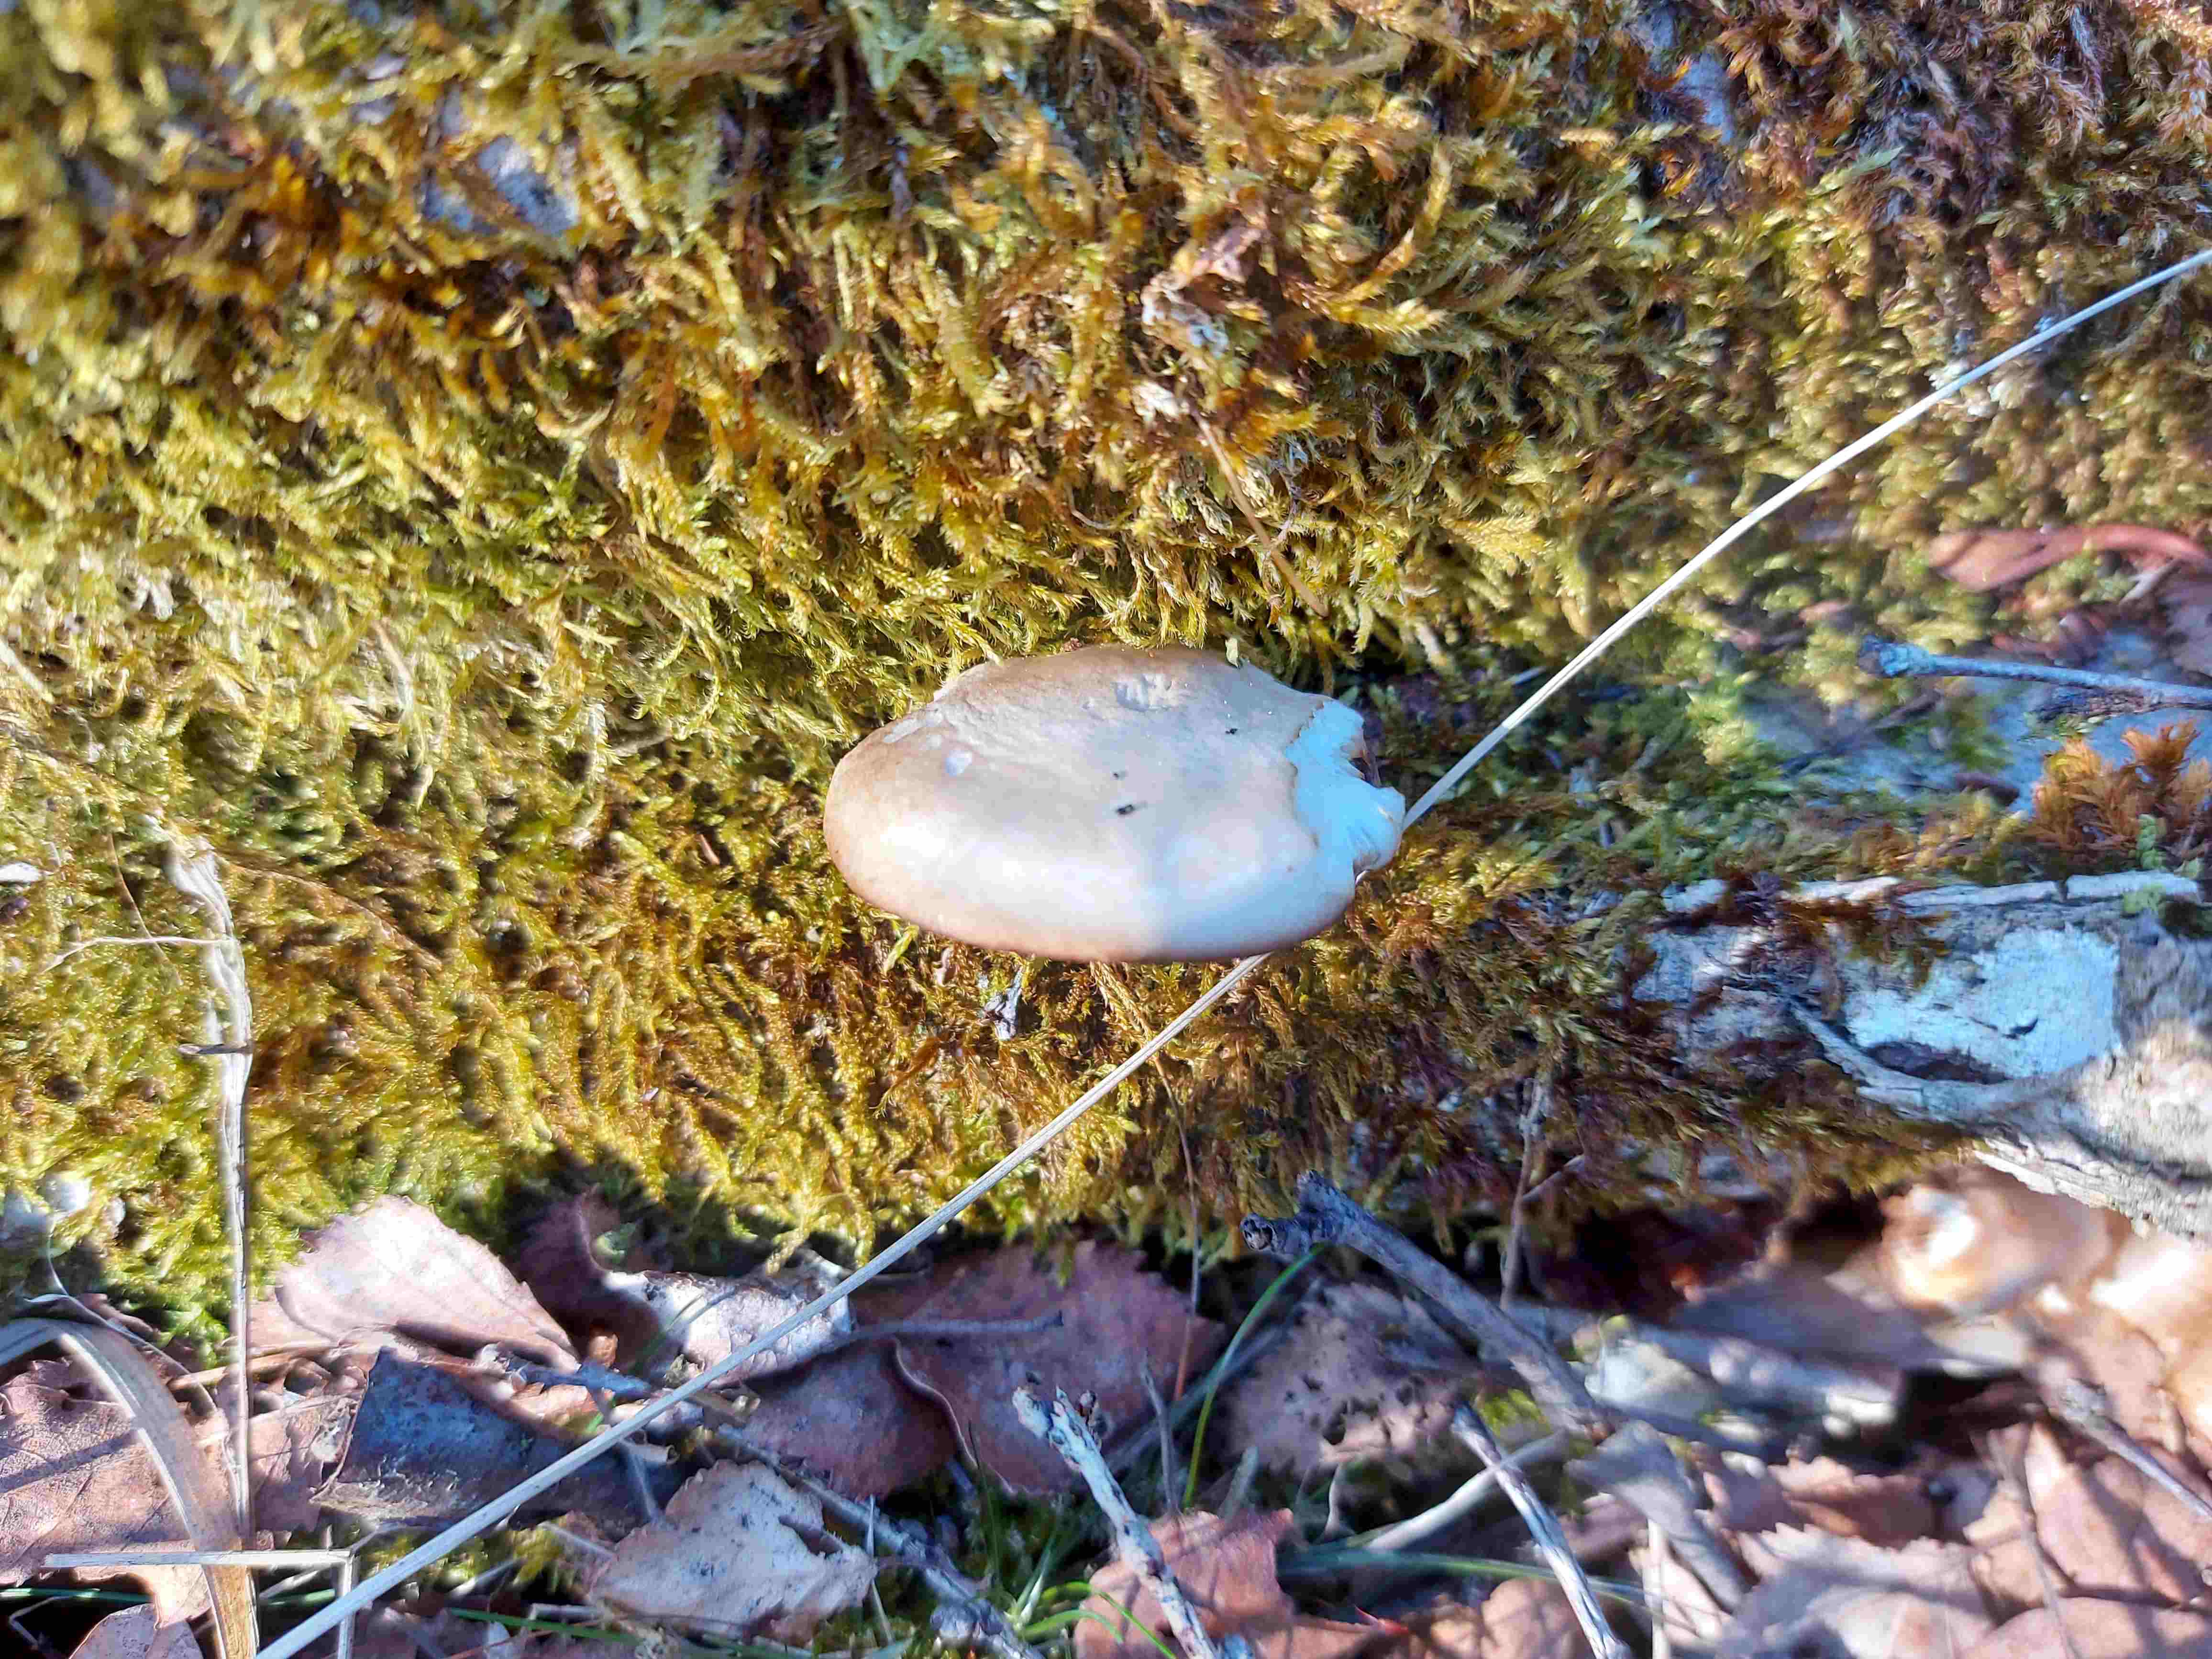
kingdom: Fungi
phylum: Basidiomycota
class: Agaricomycetes
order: Agaricales
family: Pleurotaceae
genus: Pleurotus
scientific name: Pleurotus ostreatus
